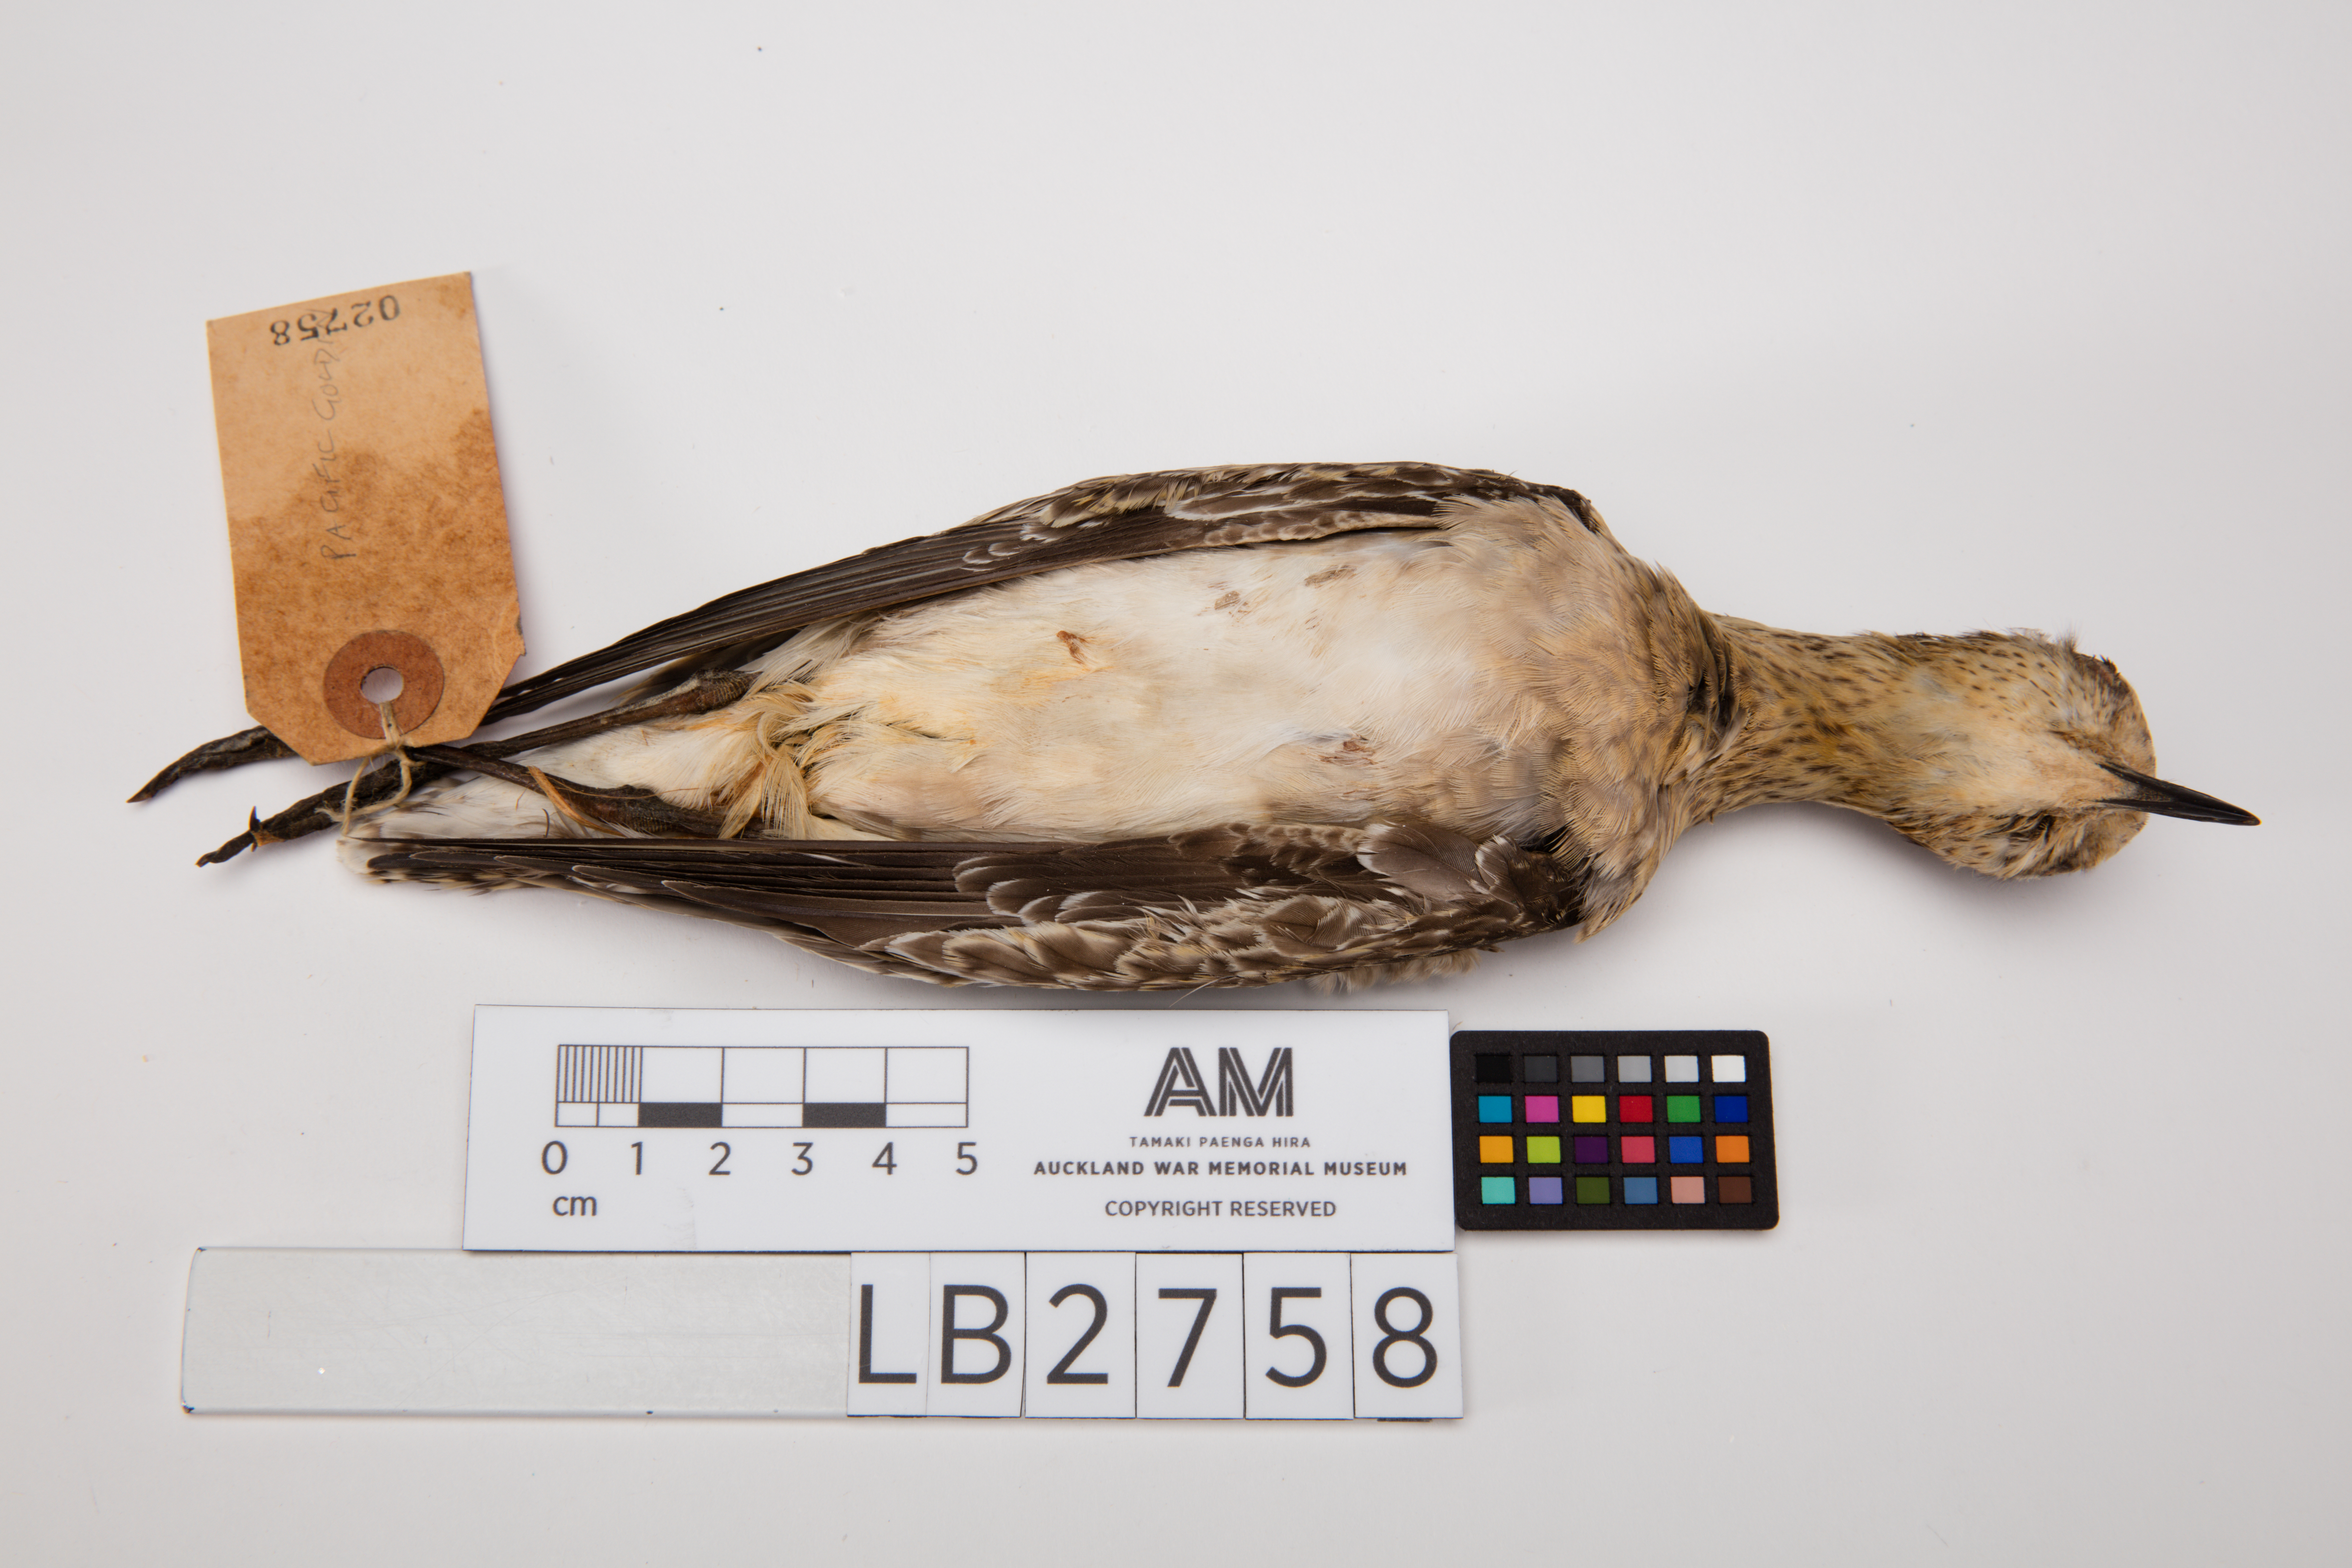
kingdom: Animalia
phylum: Chordata
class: Aves
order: Charadriiformes
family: Charadriidae
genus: Pluvialis
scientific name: Pluvialis fulva
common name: Pacific golden plover
